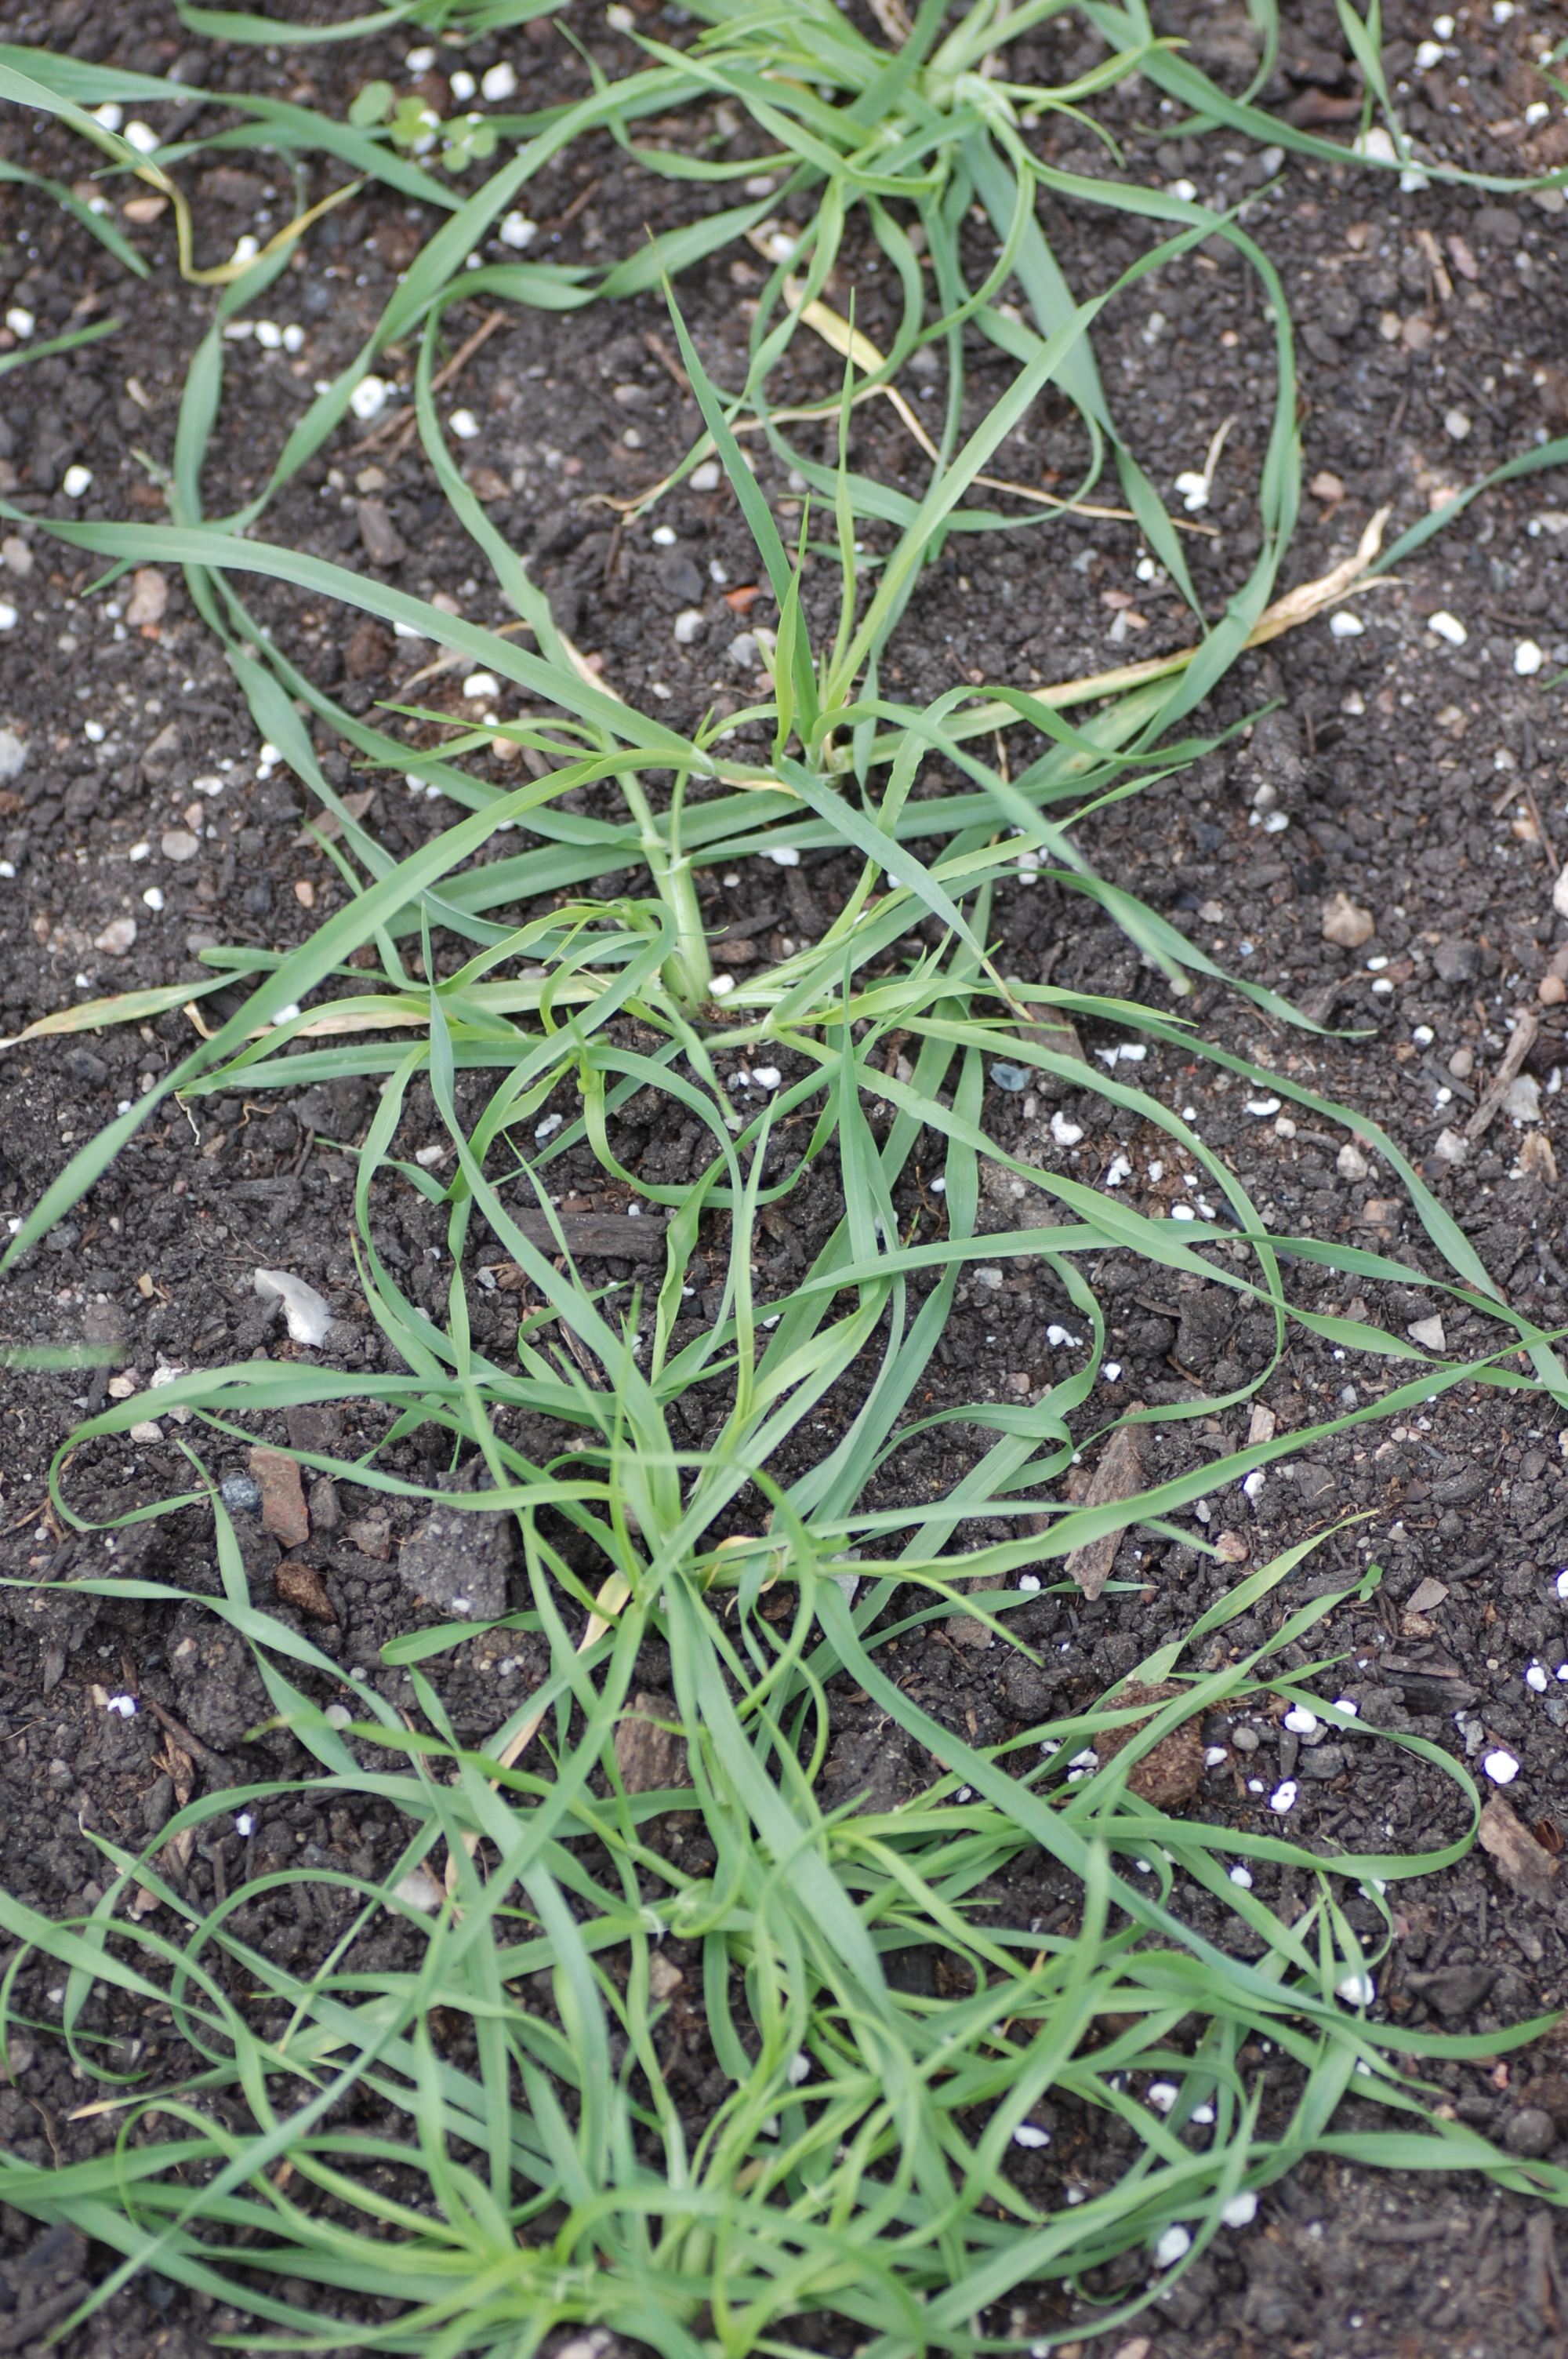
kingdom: Plantae
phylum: Tracheophyta
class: Liliopsida
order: Poales
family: Poaceae
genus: Hordeum
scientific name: Hordeum vulgare
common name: Common barley
